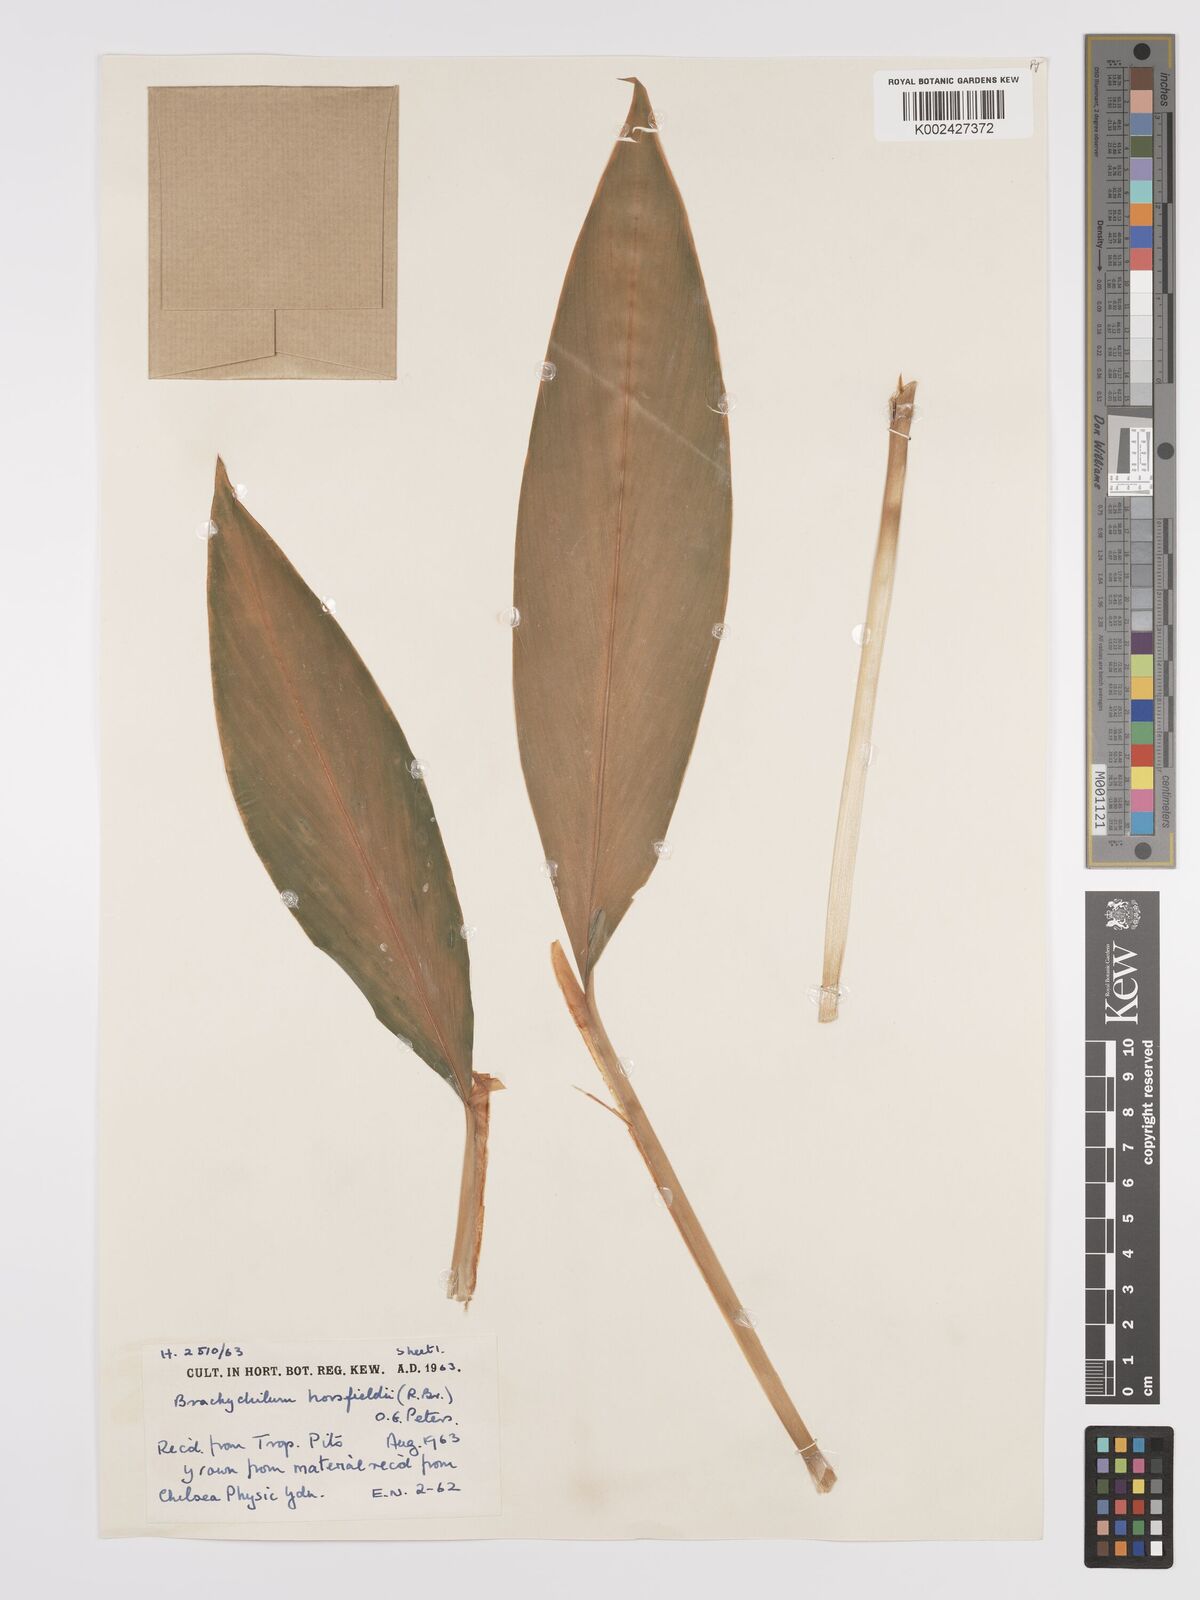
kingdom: Plantae
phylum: Tracheophyta
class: Liliopsida
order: Zingiberales
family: Zingiberaceae
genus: Hedychium
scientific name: Hedychium horsfieldii
